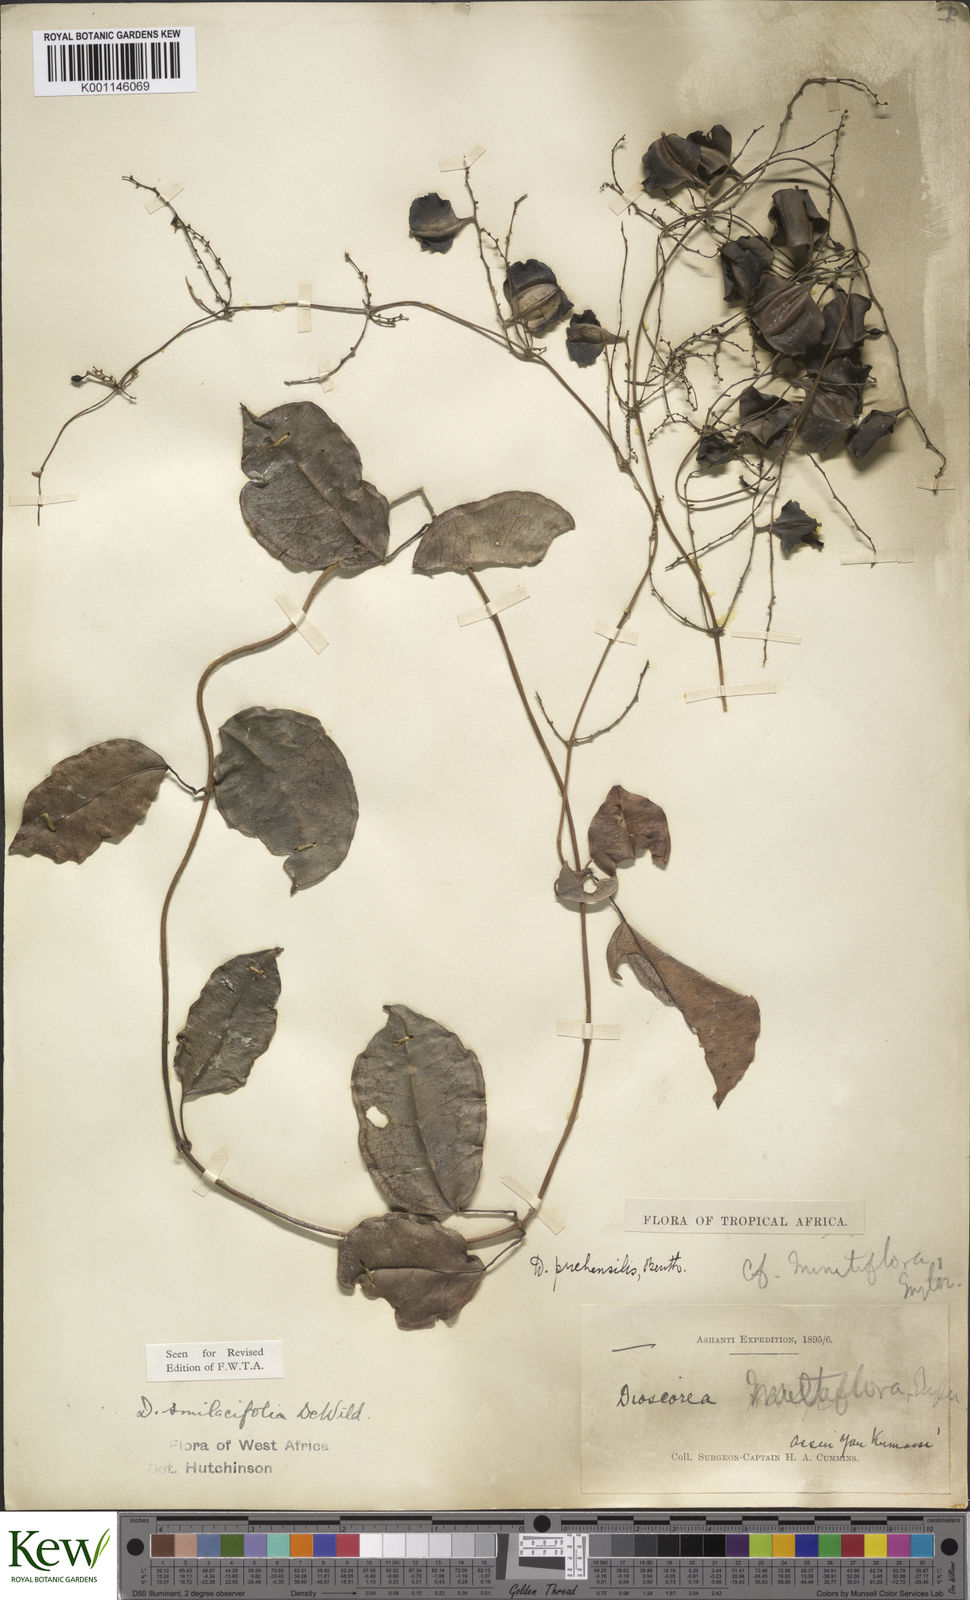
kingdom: Plantae
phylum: Tracheophyta
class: Liliopsida
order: Dioscoreales
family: Dioscoreaceae
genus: Dioscorea
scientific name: Dioscorea smilacifolia
